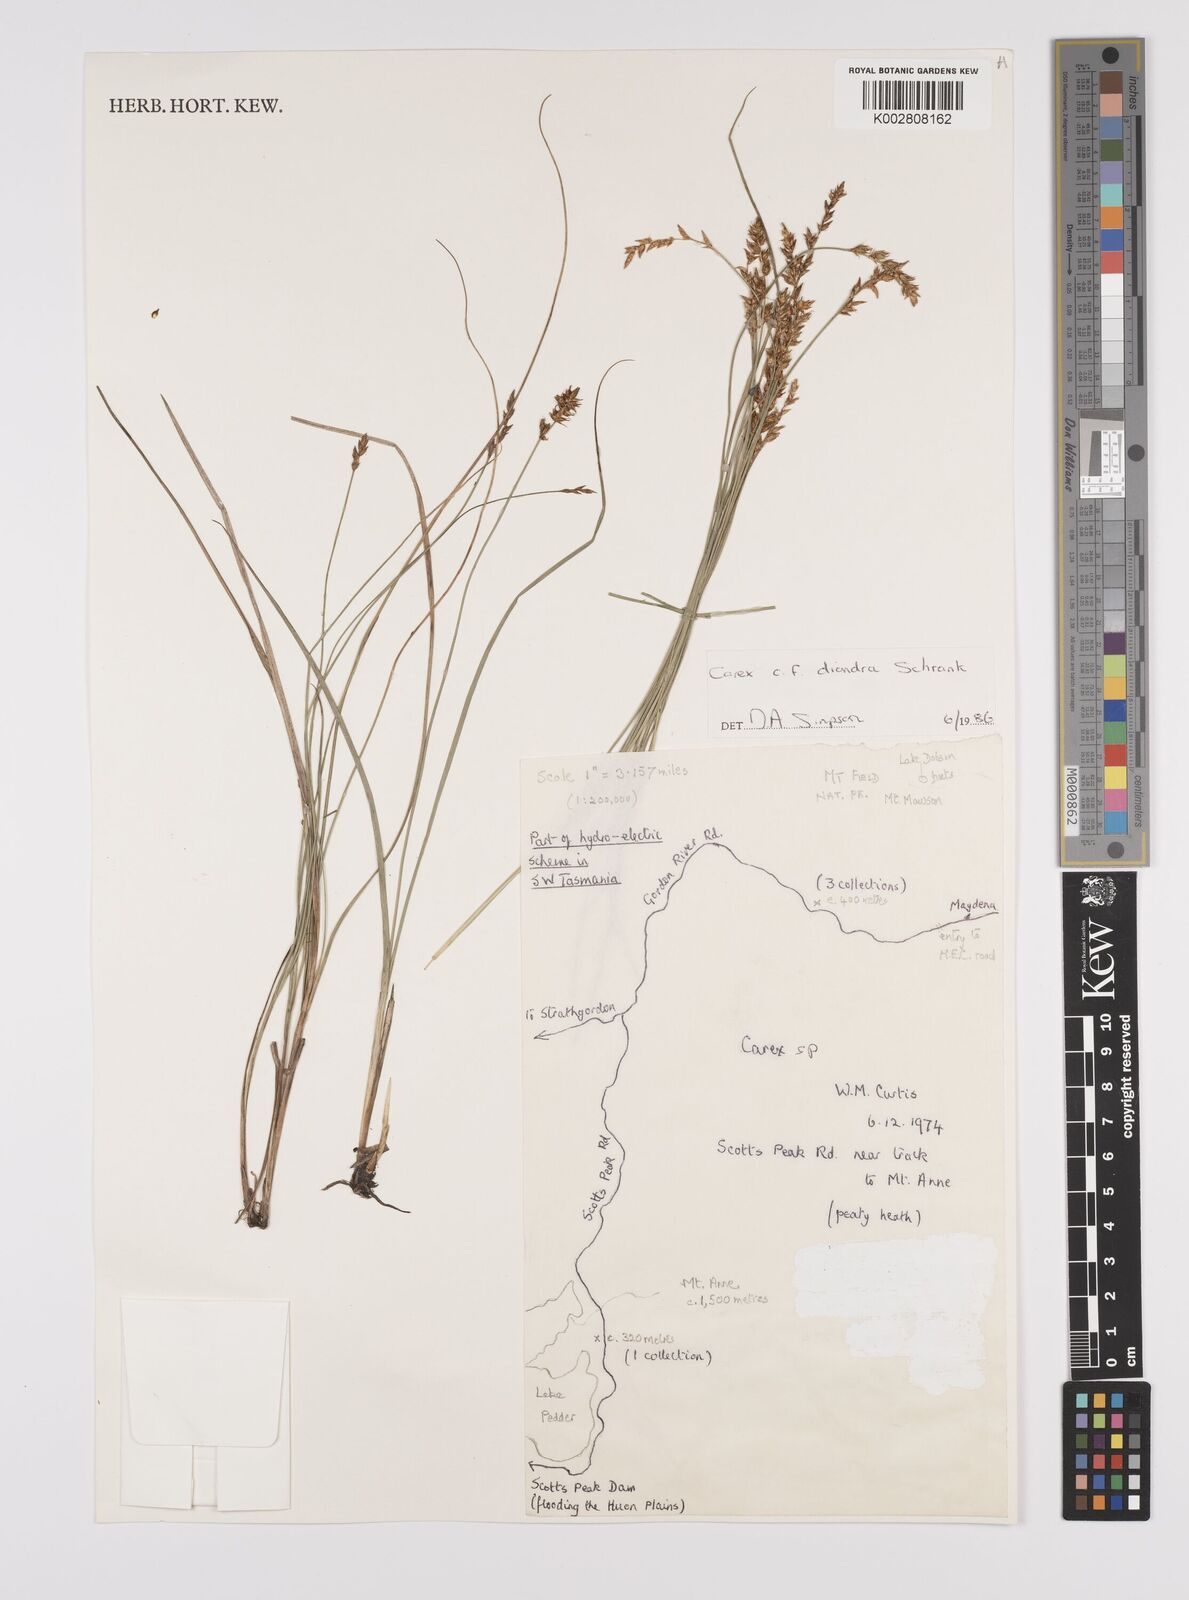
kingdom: Plantae
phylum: Tracheophyta
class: Liliopsida
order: Poales
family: Cyperaceae
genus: Carex
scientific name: Carex diandra
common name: Lesser tussock-sedge
